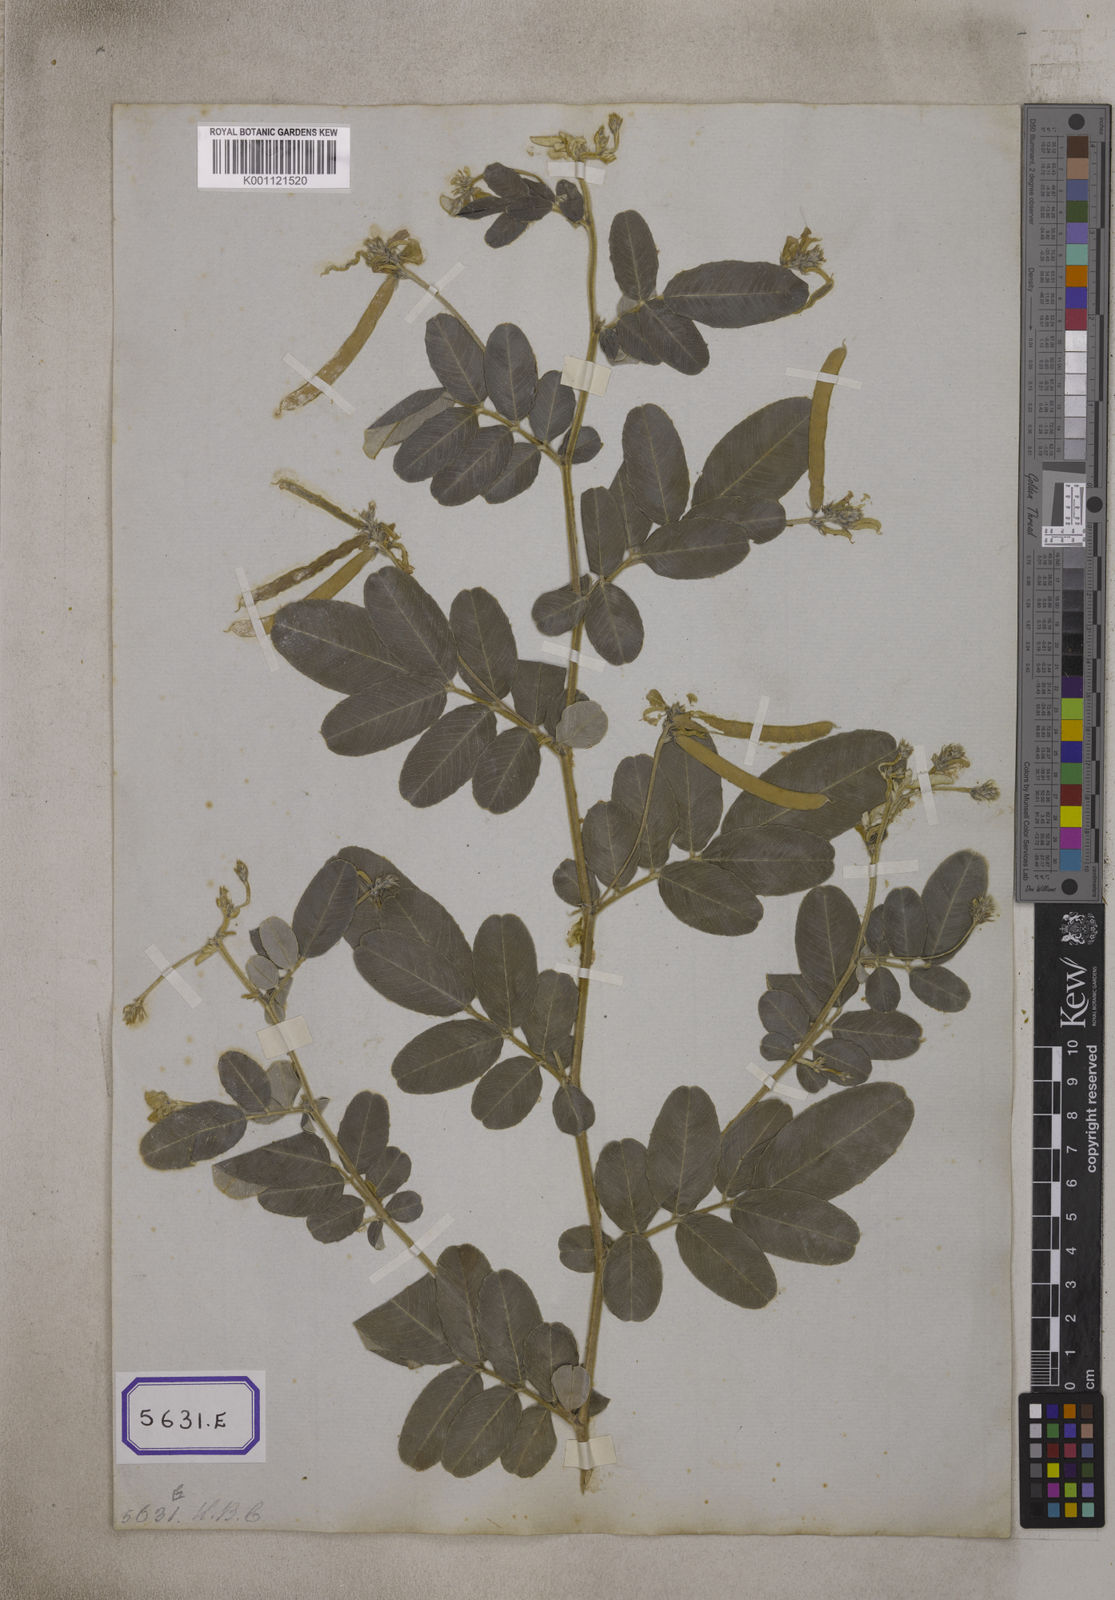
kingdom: Plantae
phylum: Tracheophyta
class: Magnoliopsida
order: Fabales
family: Fabaceae
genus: Tephrosia
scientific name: Tephrosia
